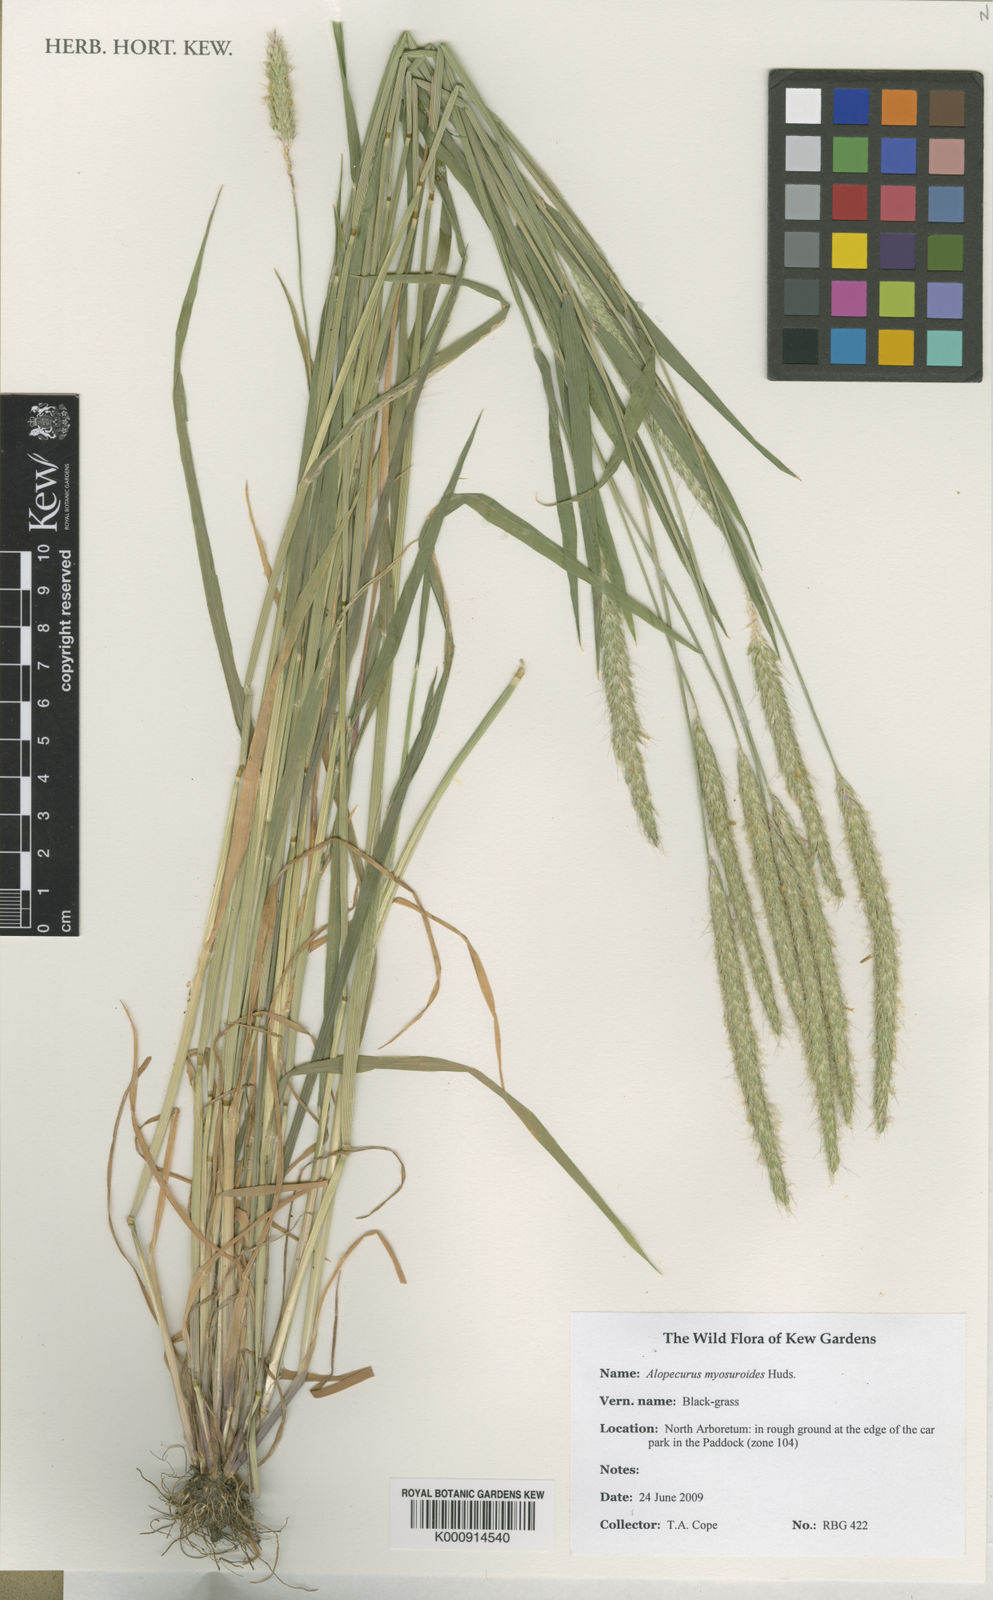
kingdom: Plantae
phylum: Tracheophyta
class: Liliopsida
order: Poales
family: Poaceae
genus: Alopecurus
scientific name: Alopecurus myosuroides
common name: Black-grass
